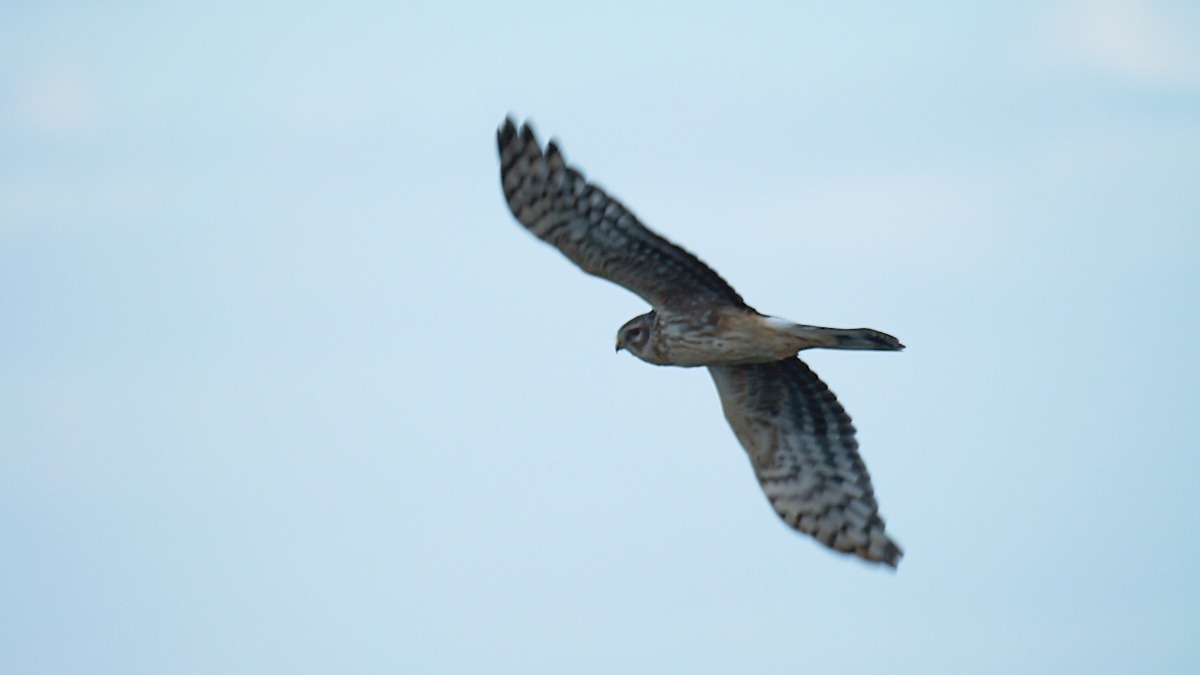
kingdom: Animalia
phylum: Chordata
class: Aves
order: Accipitriformes
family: Accipitridae
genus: Circus
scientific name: Circus cyaneus
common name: Blå kærhøg
